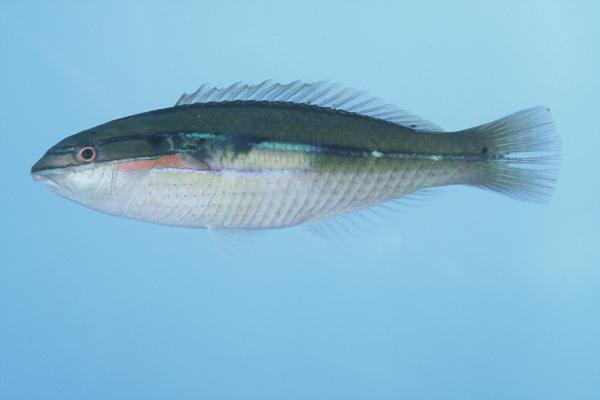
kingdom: Animalia
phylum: Chordata
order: Perciformes
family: Labridae
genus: Stethojulis
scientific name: Stethojulis strigiventer
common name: Three-ribbon wrasse
